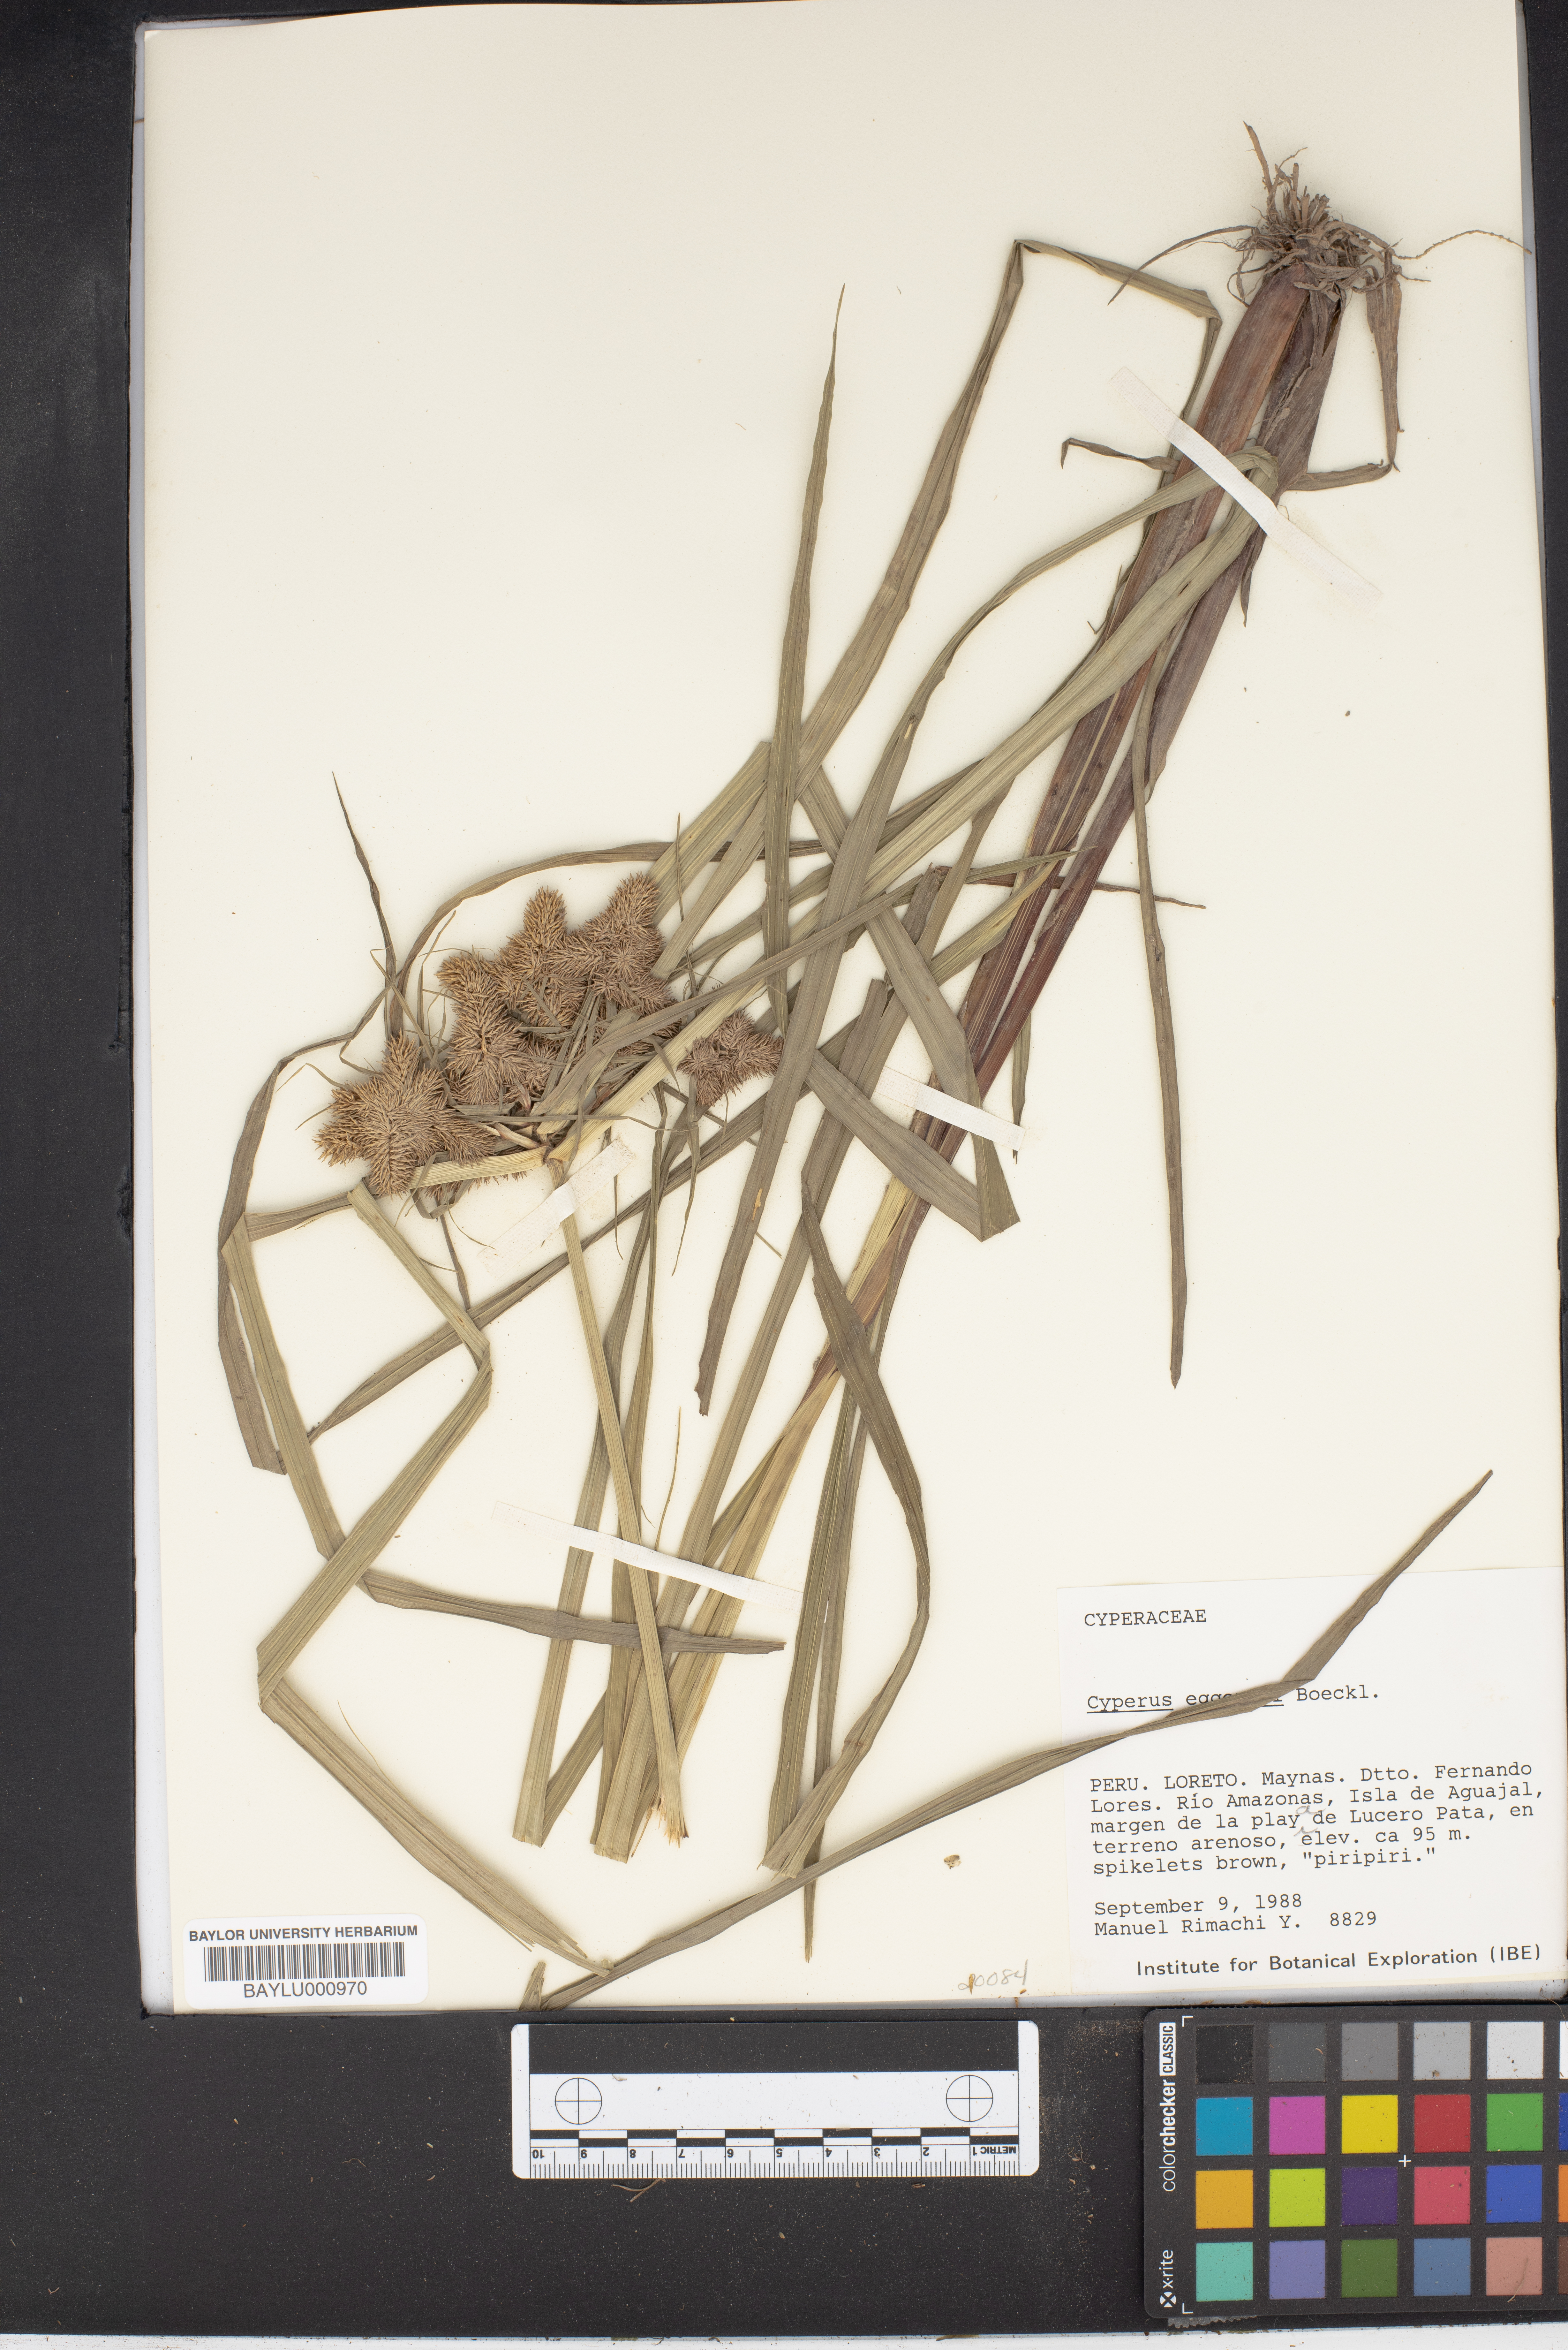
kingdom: Plantae
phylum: Tracheophyta
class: Liliopsida
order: Poales
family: Cyperaceae
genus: Cyperus
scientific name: Cyperus odoratus
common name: Fragrant flatsedge
